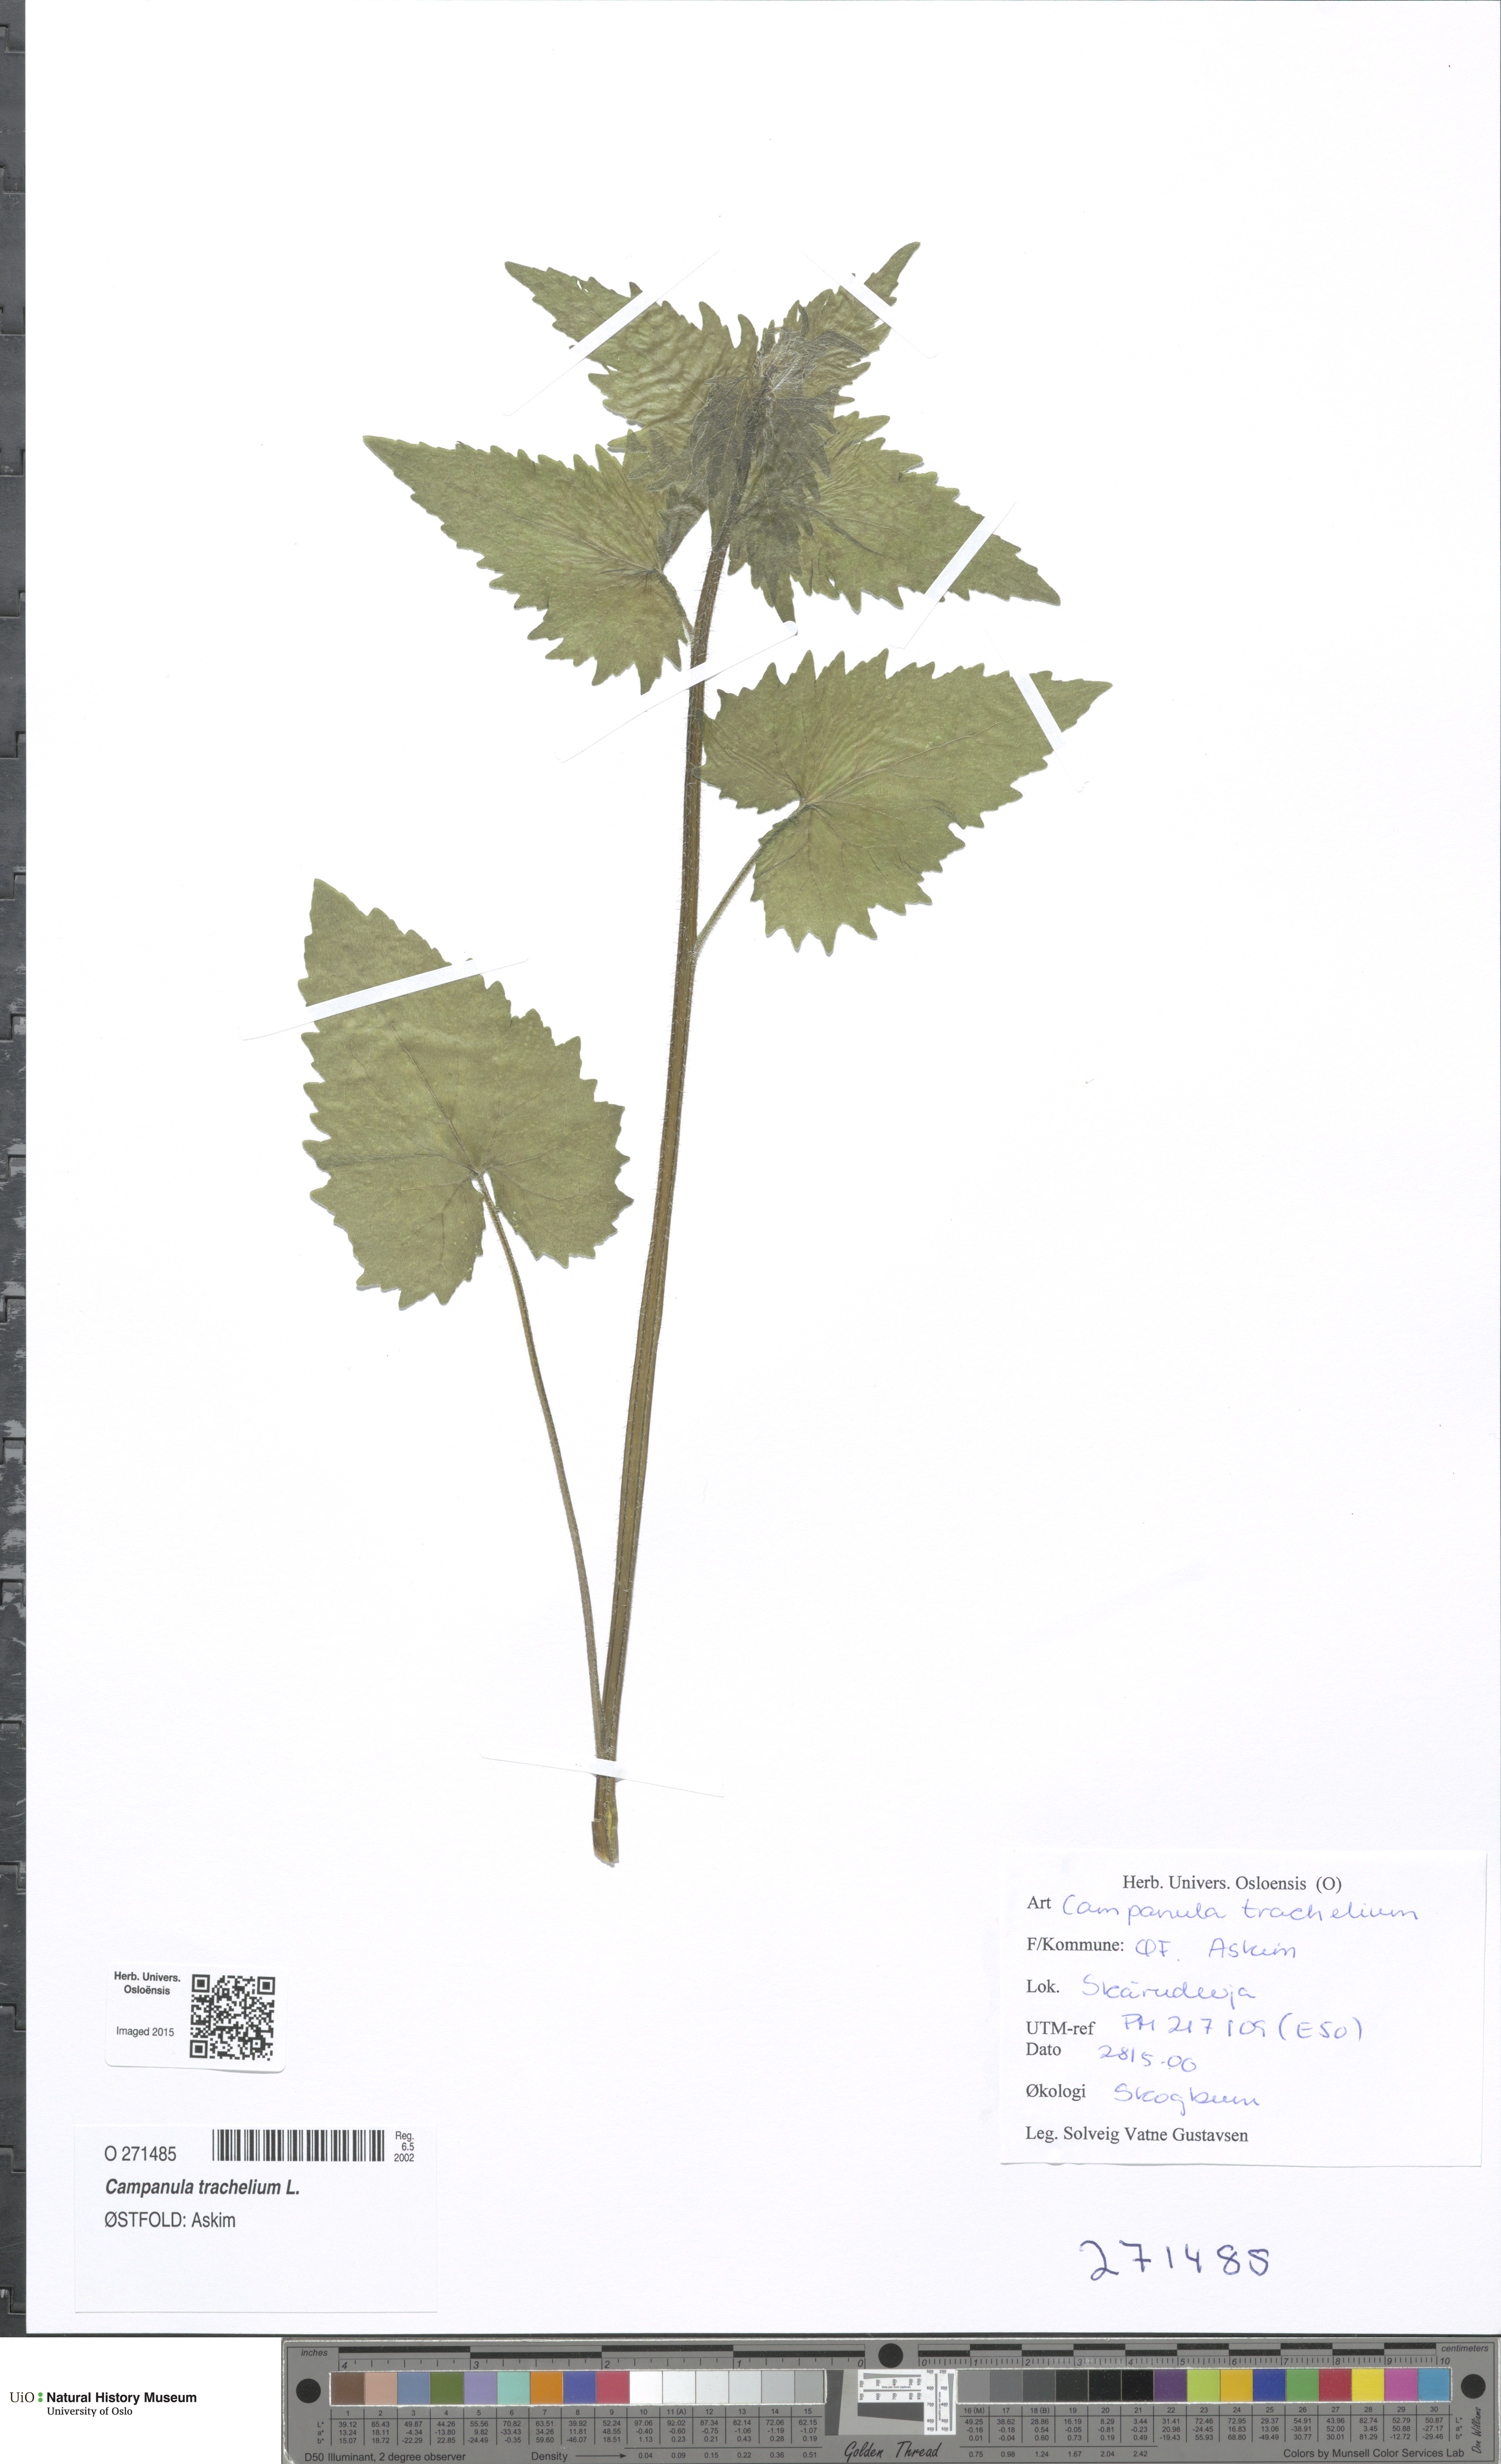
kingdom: Plantae
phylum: Tracheophyta
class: Magnoliopsida
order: Asterales
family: Campanulaceae
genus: Campanula
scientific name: Campanula trachelium
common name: Nettle-leaved bellflower
